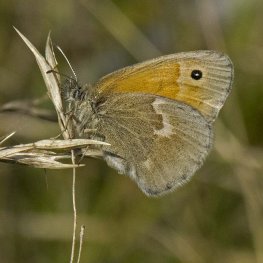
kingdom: Animalia
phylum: Arthropoda
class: Insecta
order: Lepidoptera
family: Nymphalidae
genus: Coenonympha
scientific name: Coenonympha tullia
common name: Large Heath
